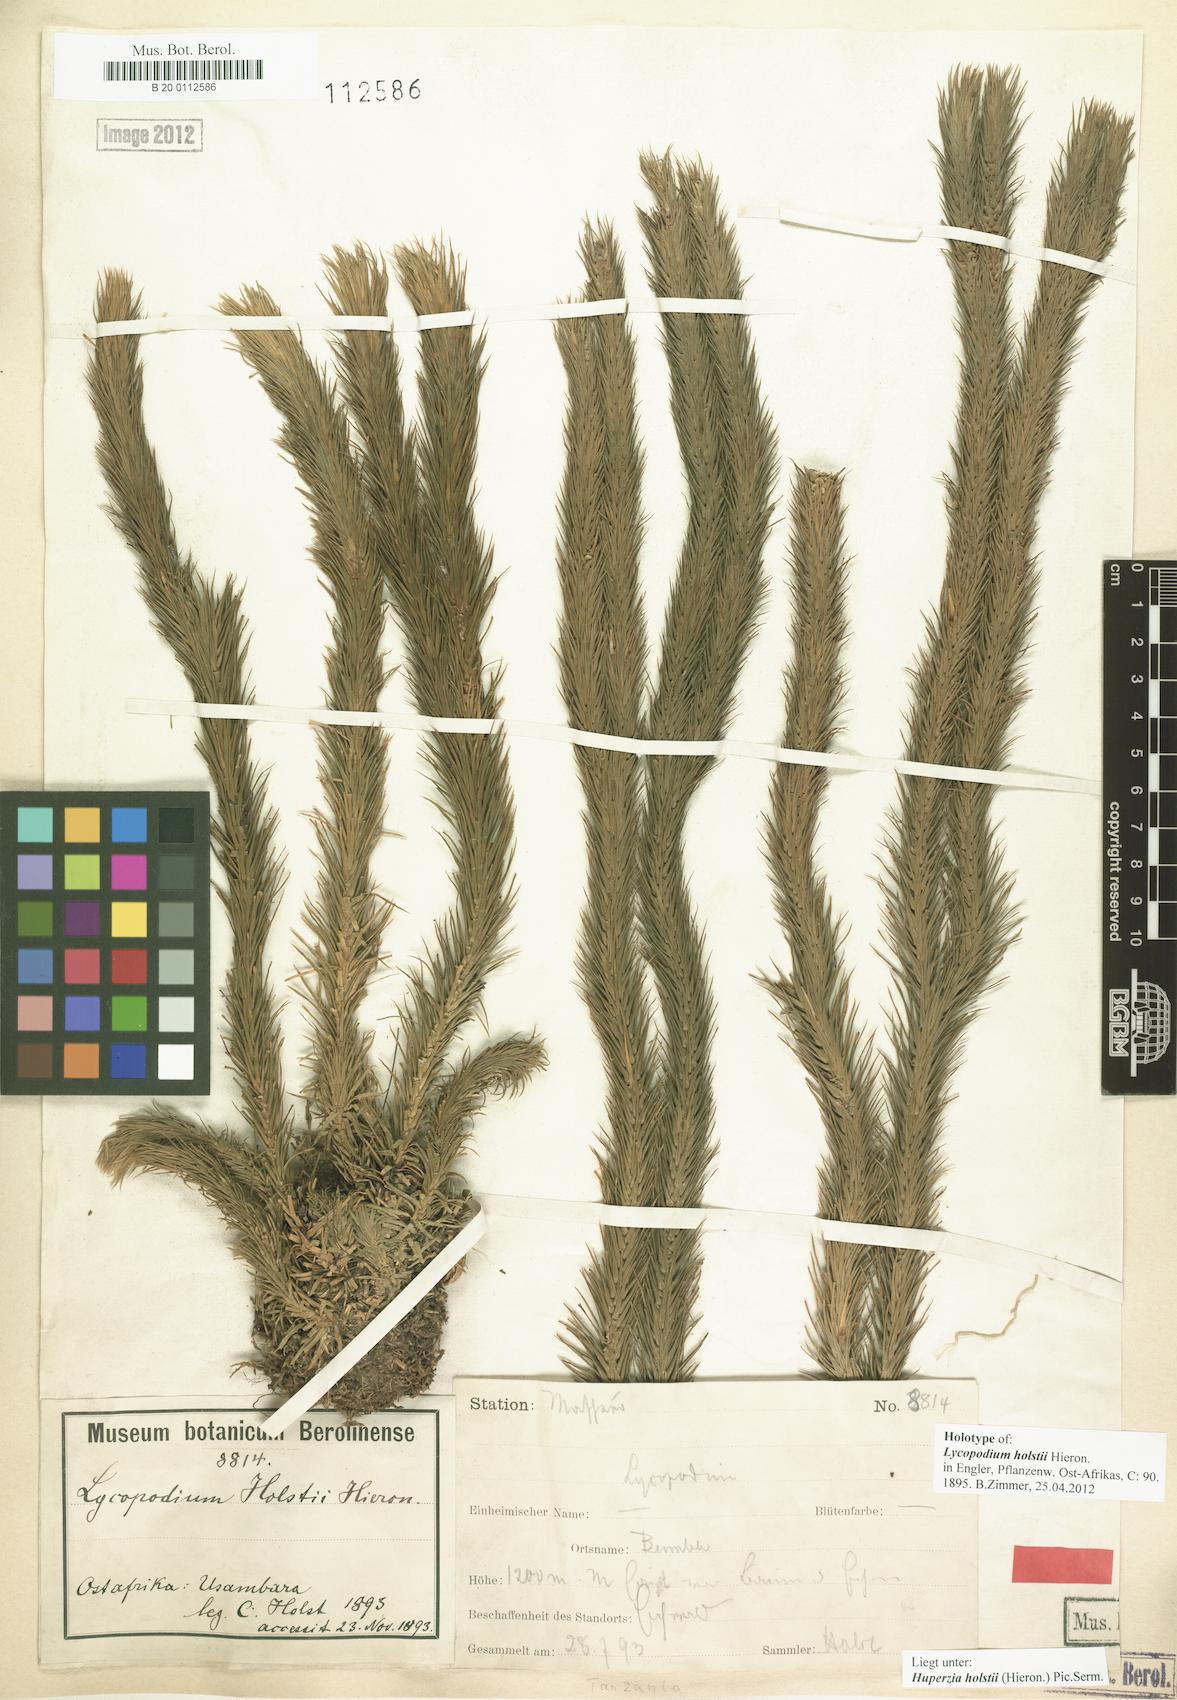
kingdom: Plantae
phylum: Tracheophyta
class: Lycopodiopsida
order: Lycopodiales
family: Lycopodiaceae
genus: Phlegmariurus
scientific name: Phlegmariurus holstii
